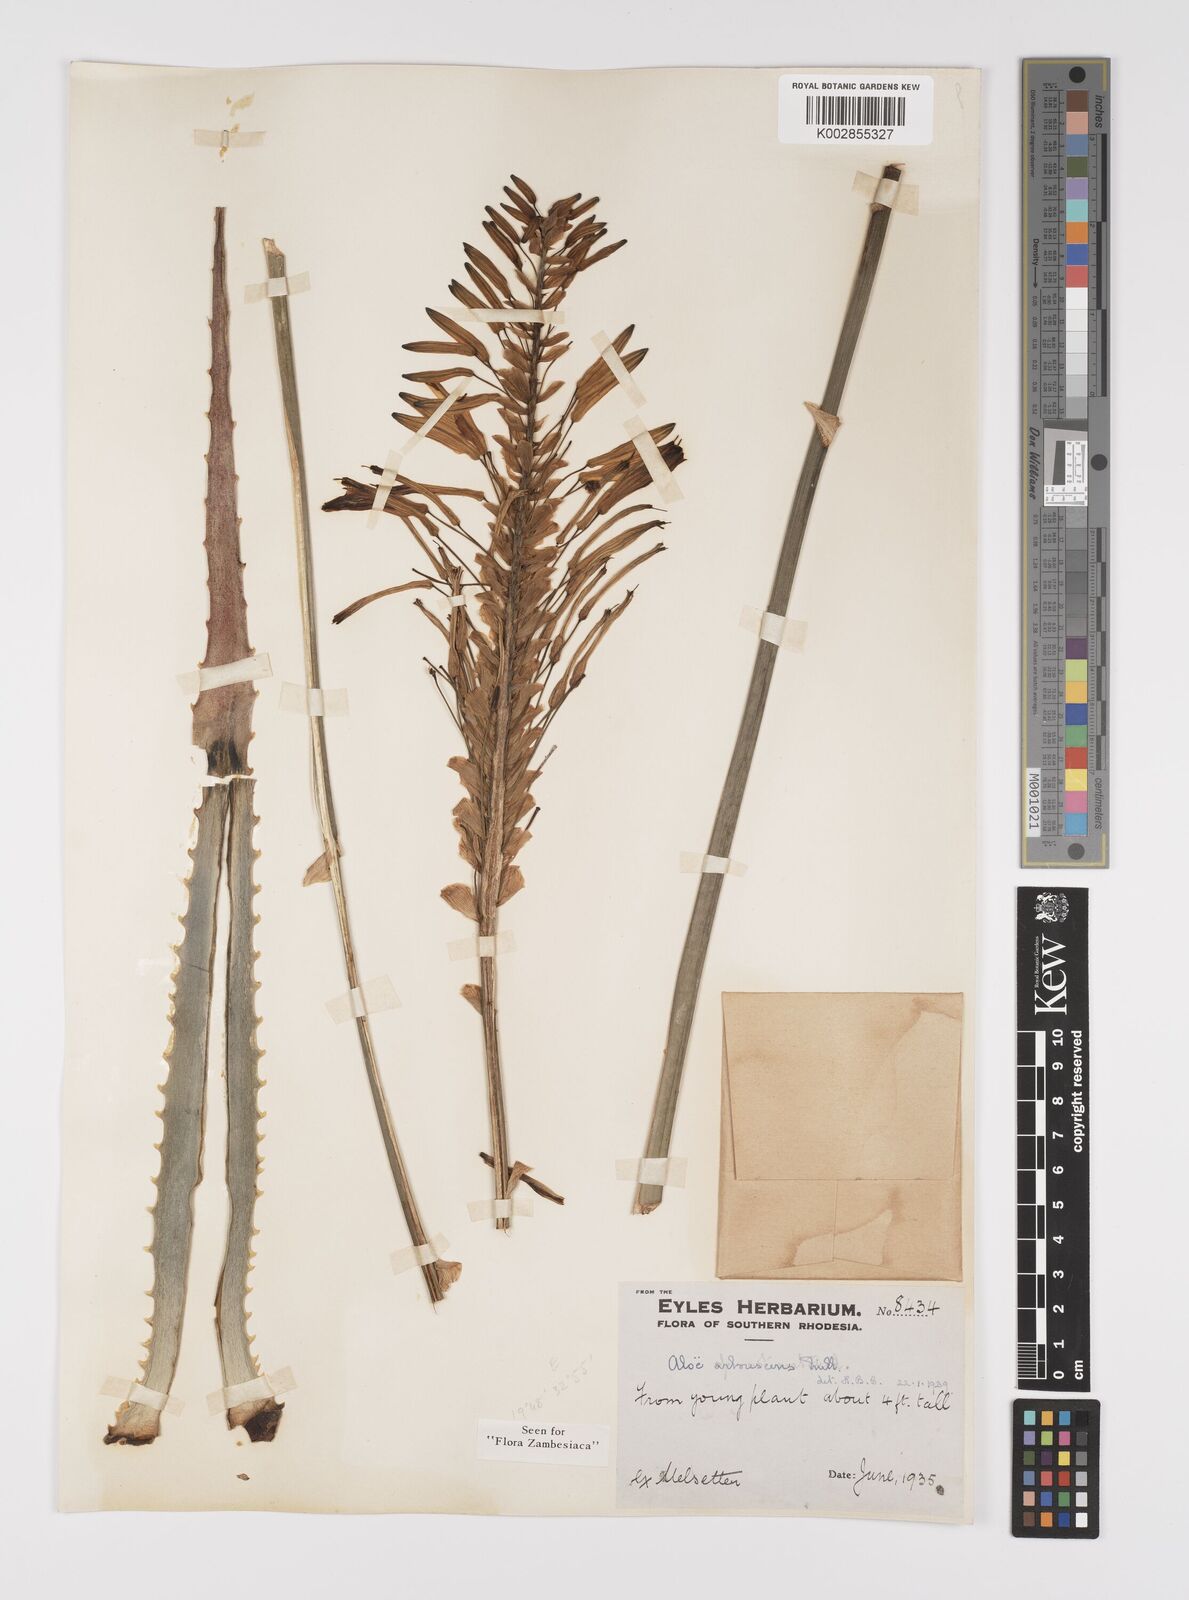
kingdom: Plantae
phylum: Tracheophyta
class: Liliopsida
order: Asparagales
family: Asphodelaceae
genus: Aloe
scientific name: Aloe arborescens
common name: Candelabra aloe
